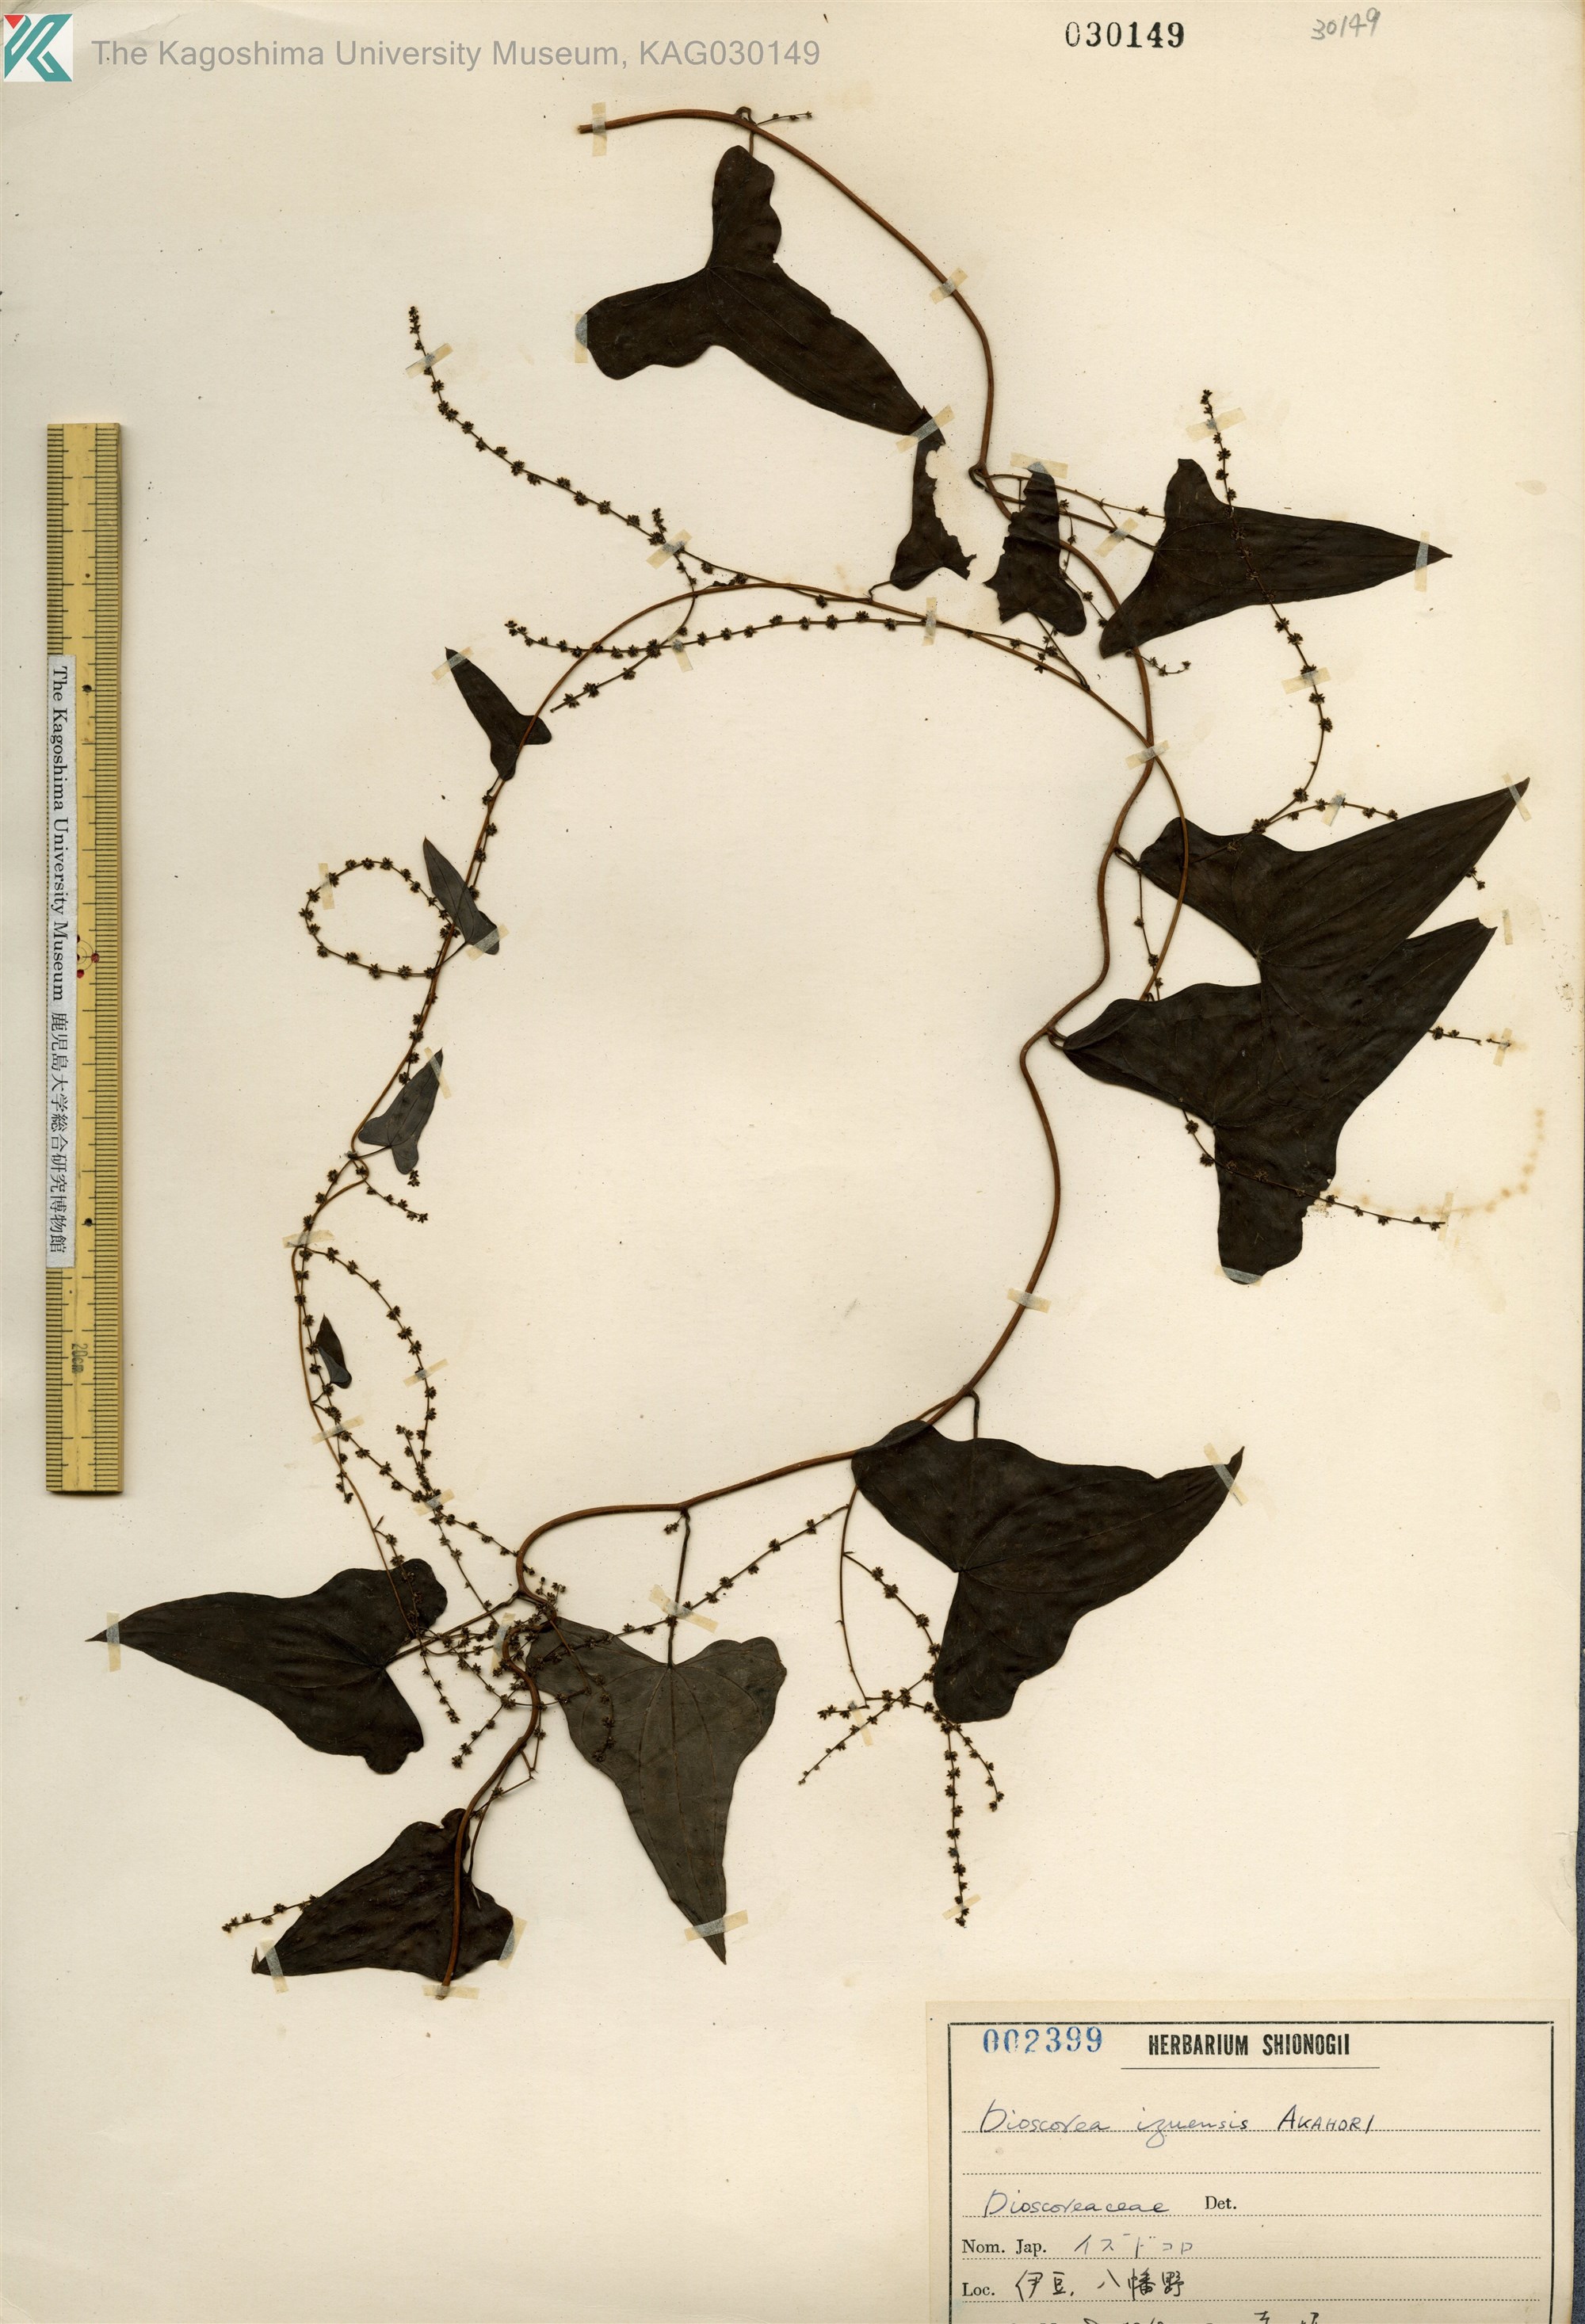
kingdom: Plantae
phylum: Tracheophyta
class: Liliopsida
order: Dioscoreales
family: Dioscoreaceae
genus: Dioscorea
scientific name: Dioscorea izuensis
